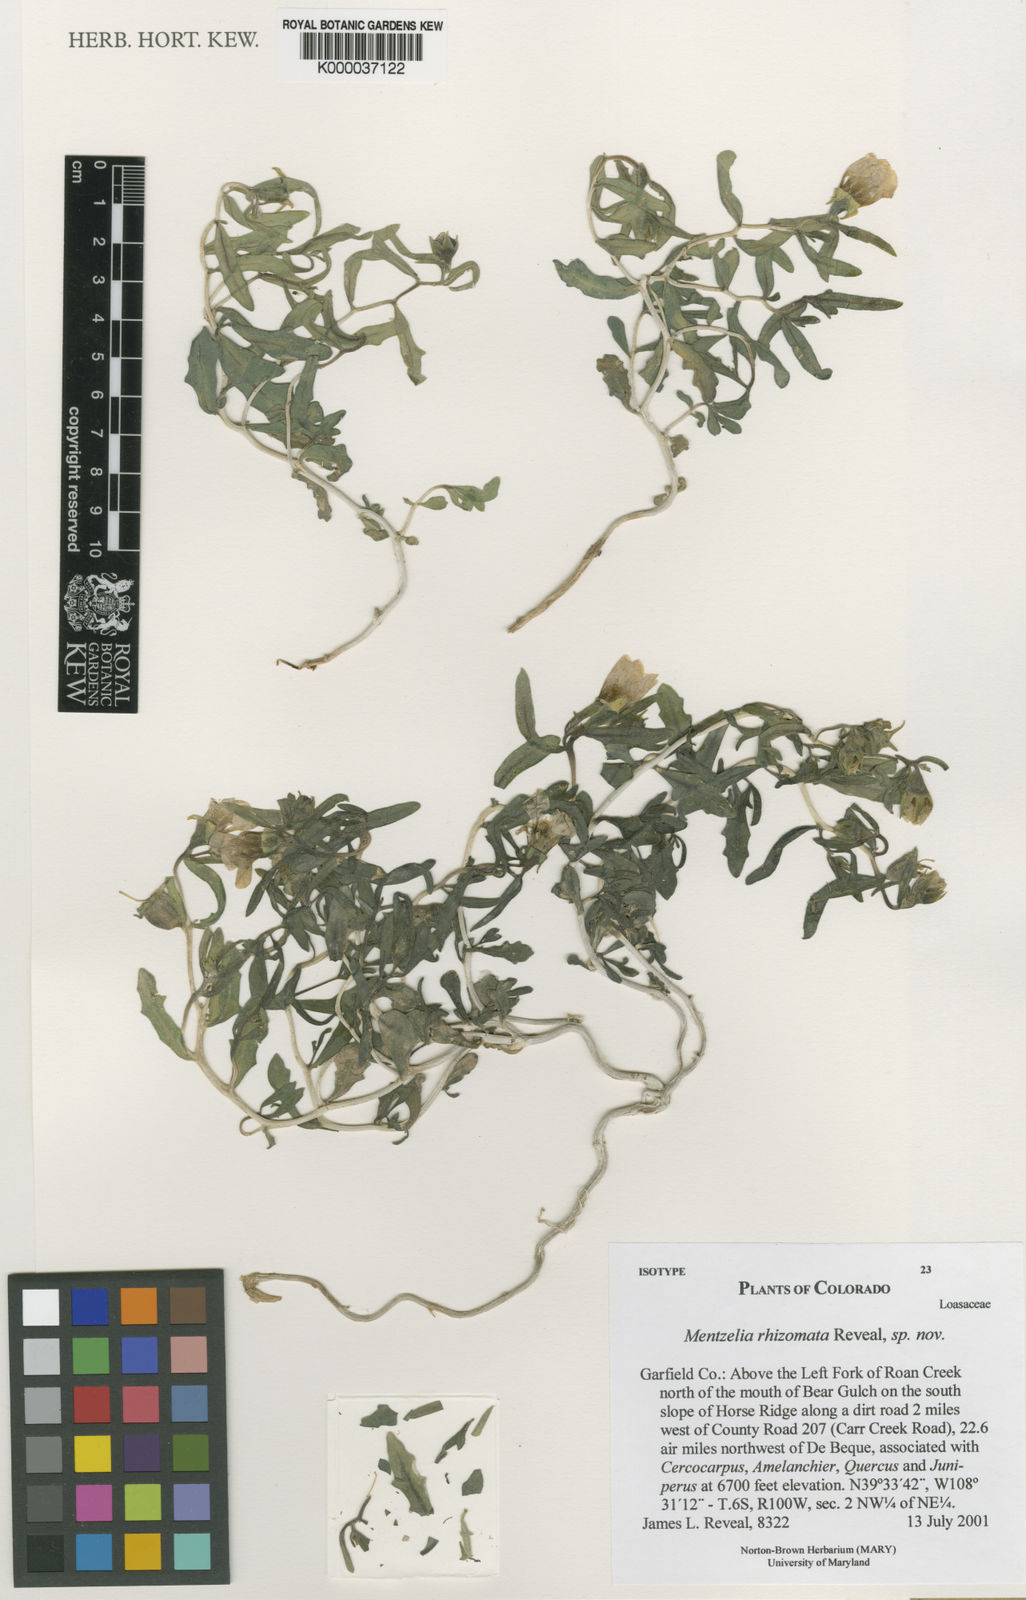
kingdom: Plantae
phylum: Tracheophyta
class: Magnoliopsida
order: Cornales
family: Loasaceae
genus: Mentzelia
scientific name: Mentzelia rhizomata
